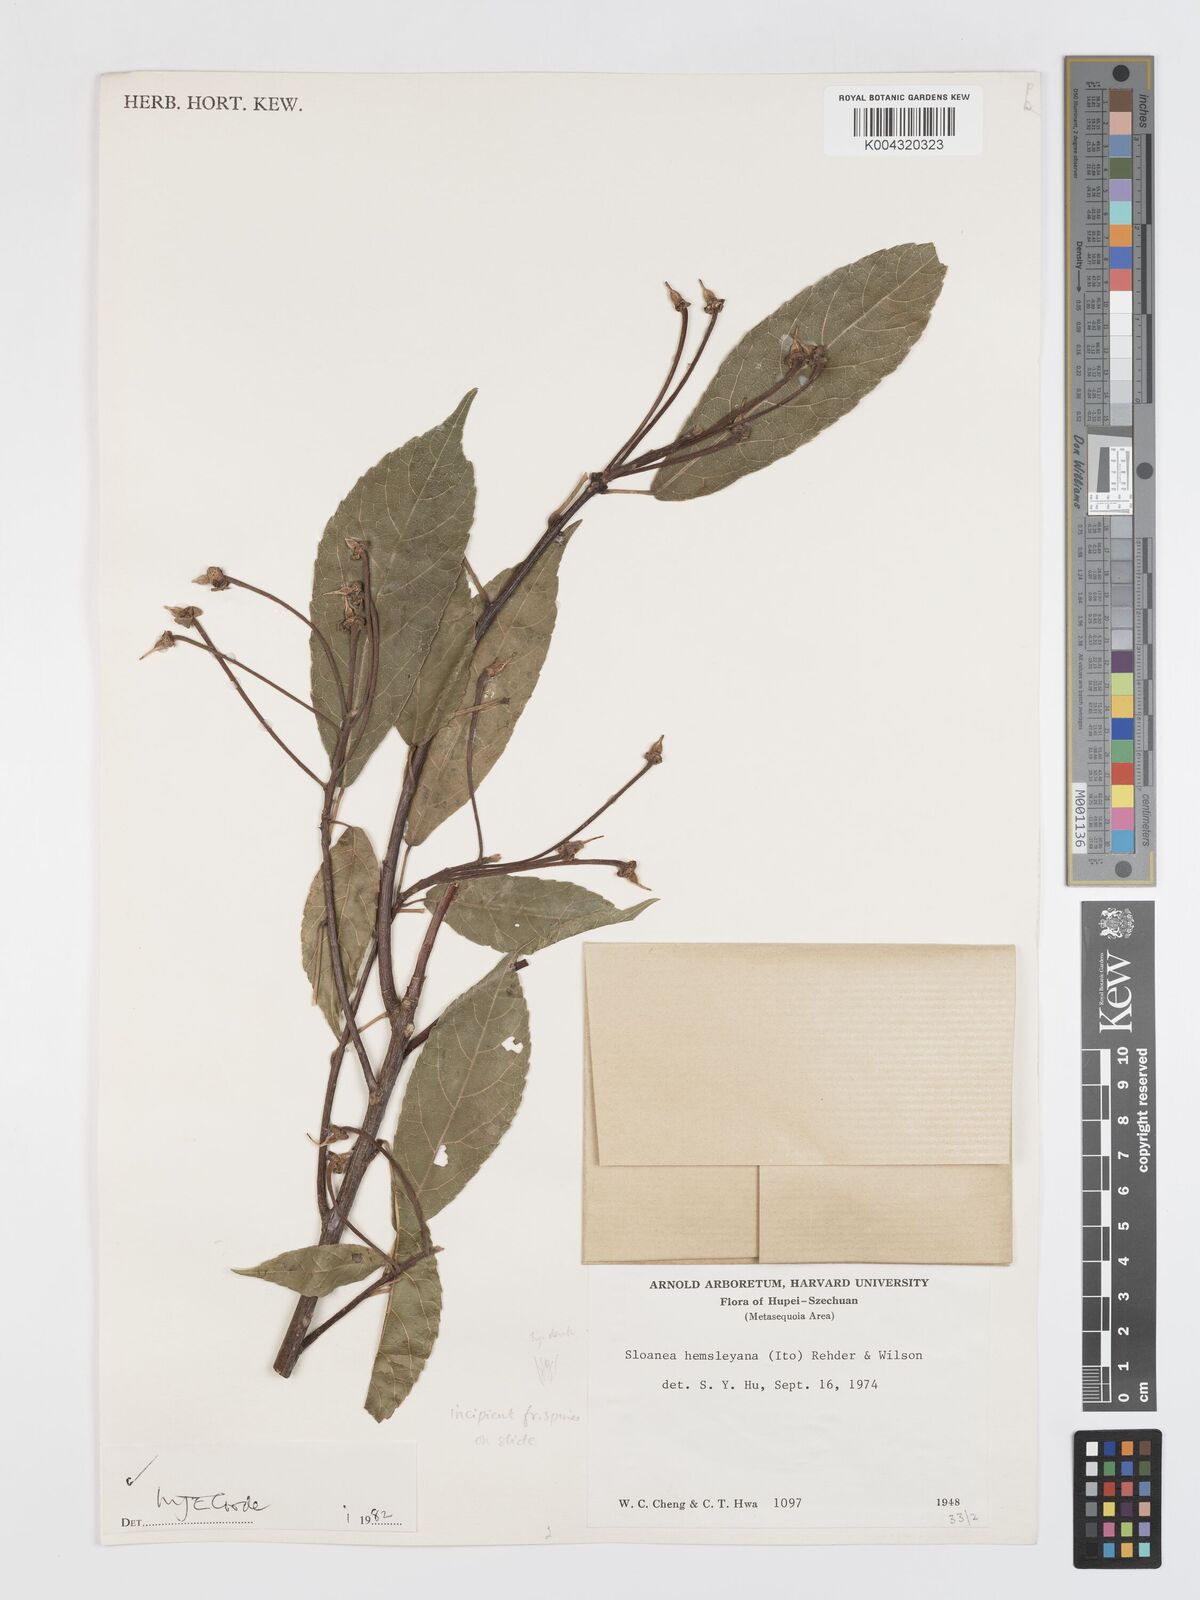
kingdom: Plantae
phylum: Tracheophyta
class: Magnoliopsida
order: Oxalidales
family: Elaeocarpaceae
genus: Sloanea
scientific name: Sloanea hemsleyana
